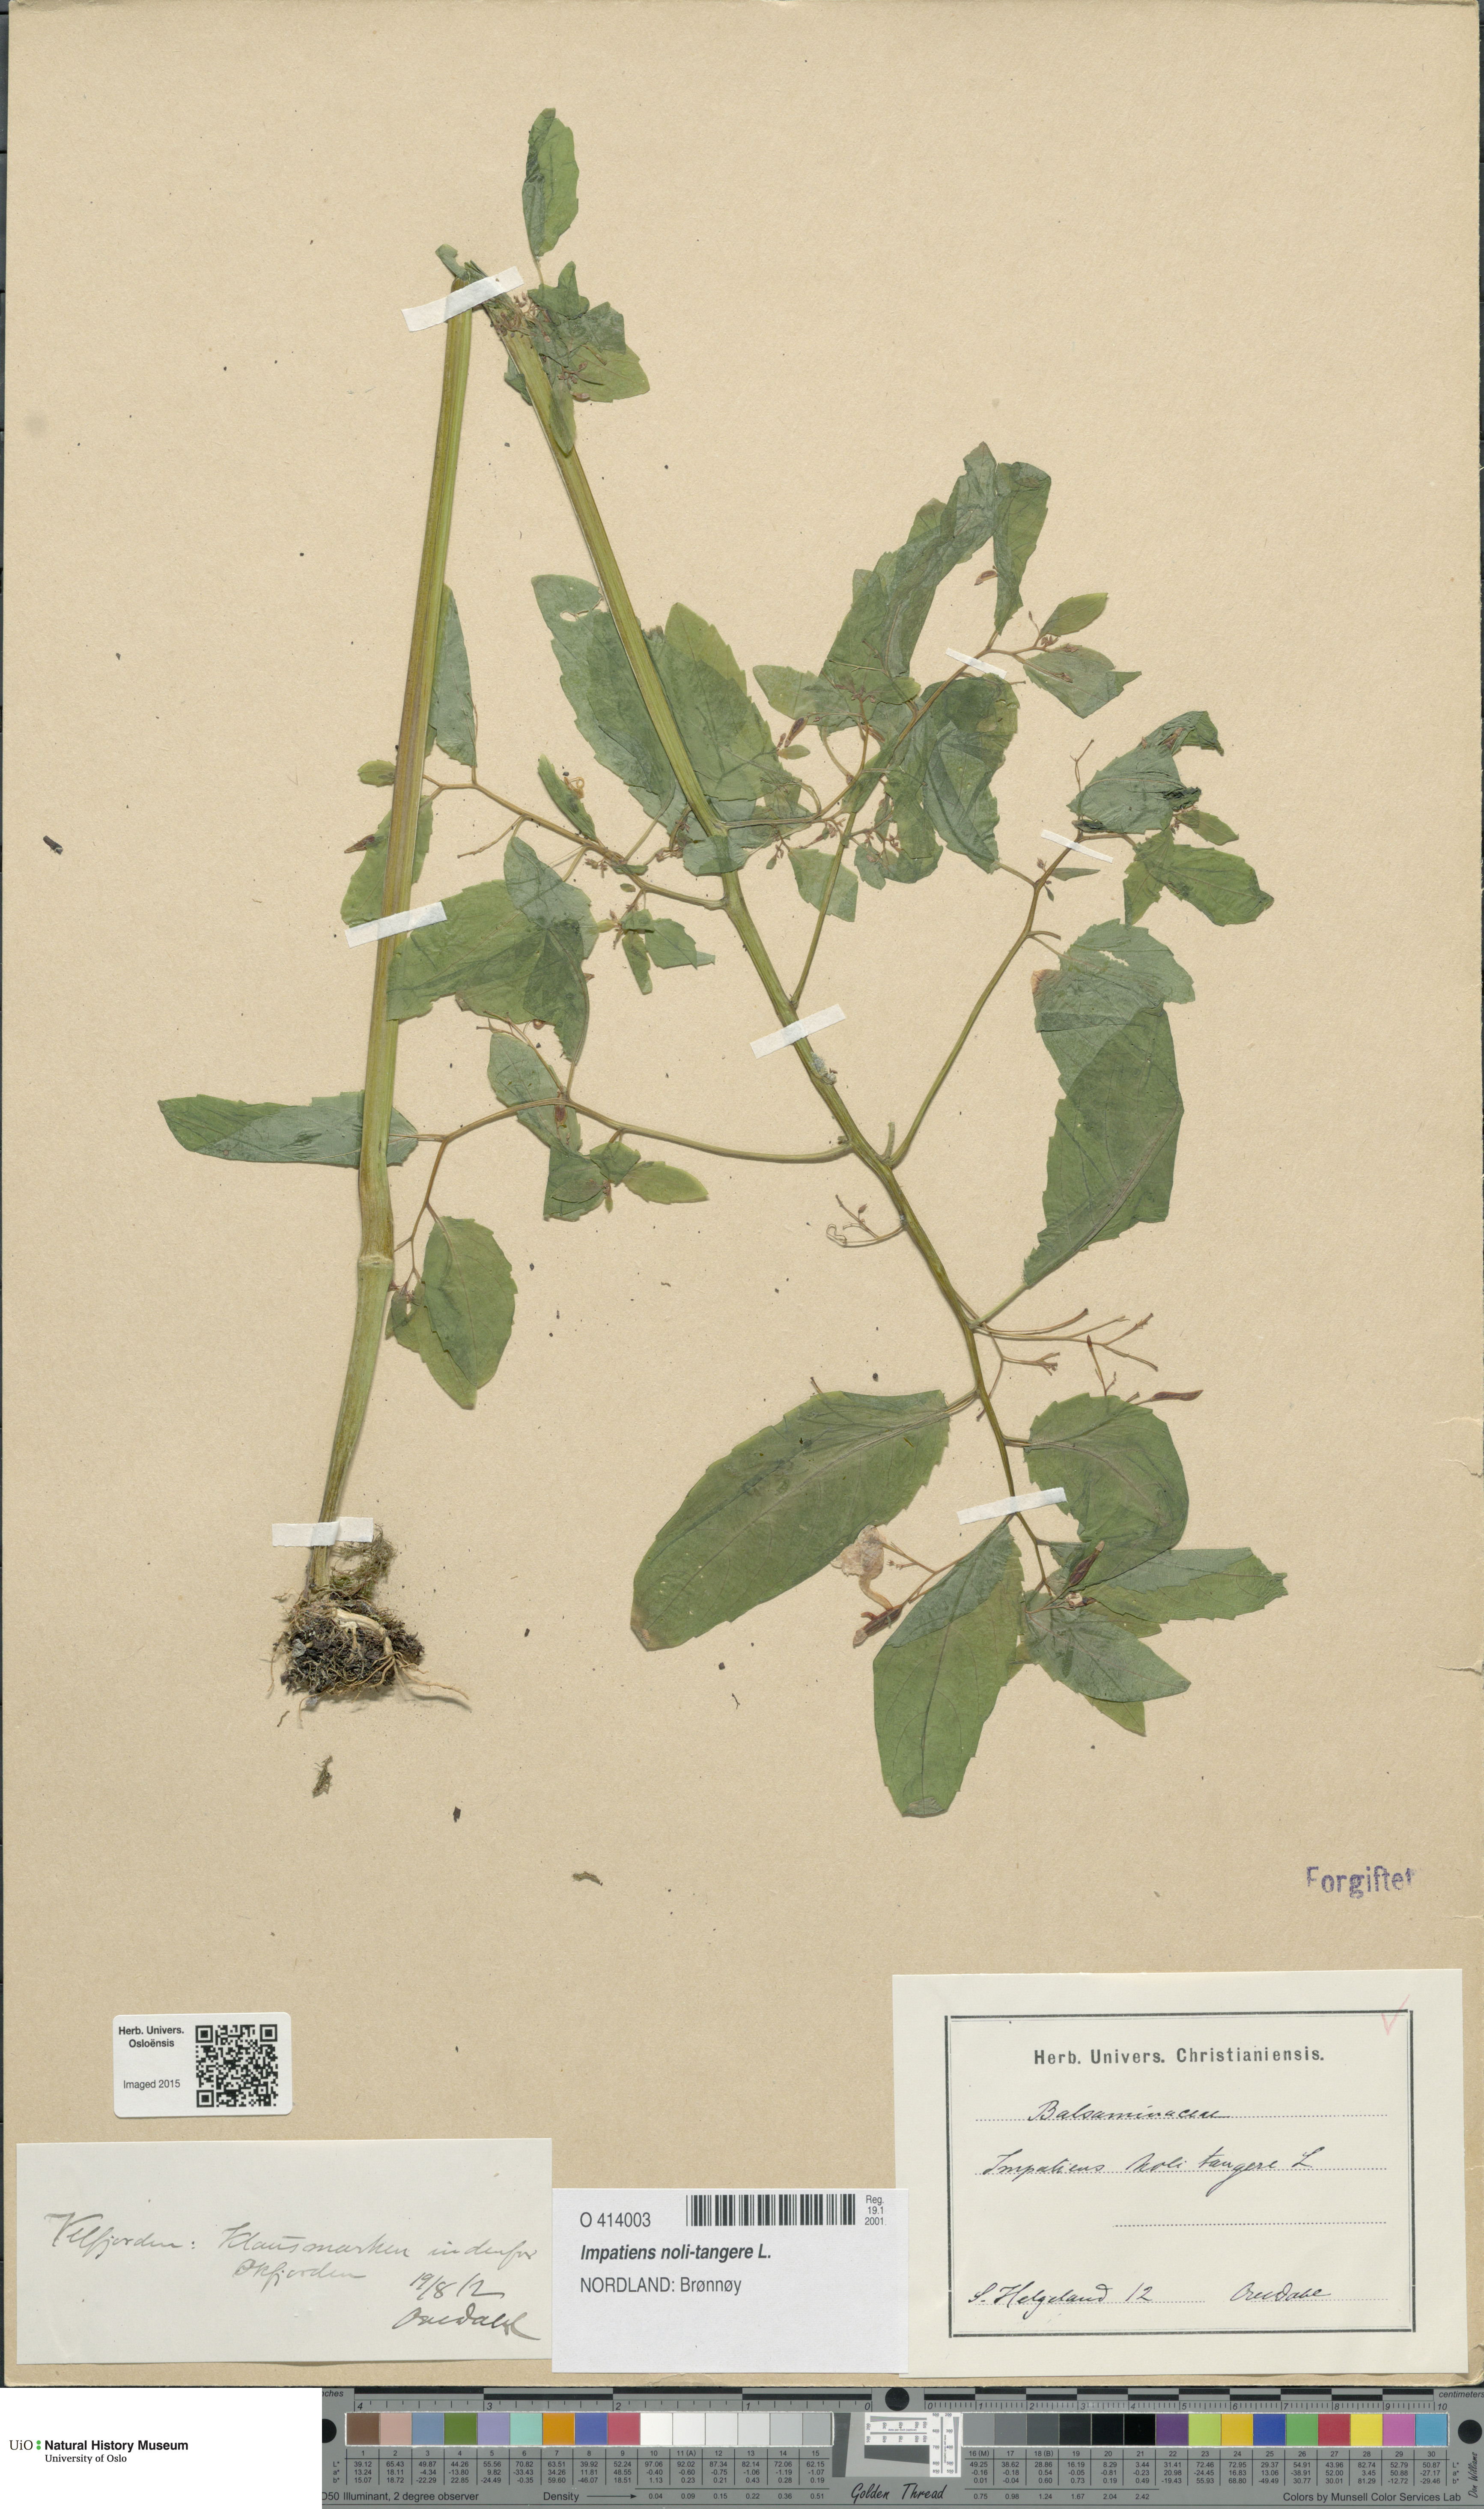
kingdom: Plantae
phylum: Tracheophyta
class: Magnoliopsida
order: Ericales
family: Balsaminaceae
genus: Impatiens
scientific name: Impatiens noli-tangere
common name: Touch-me-not balsam
